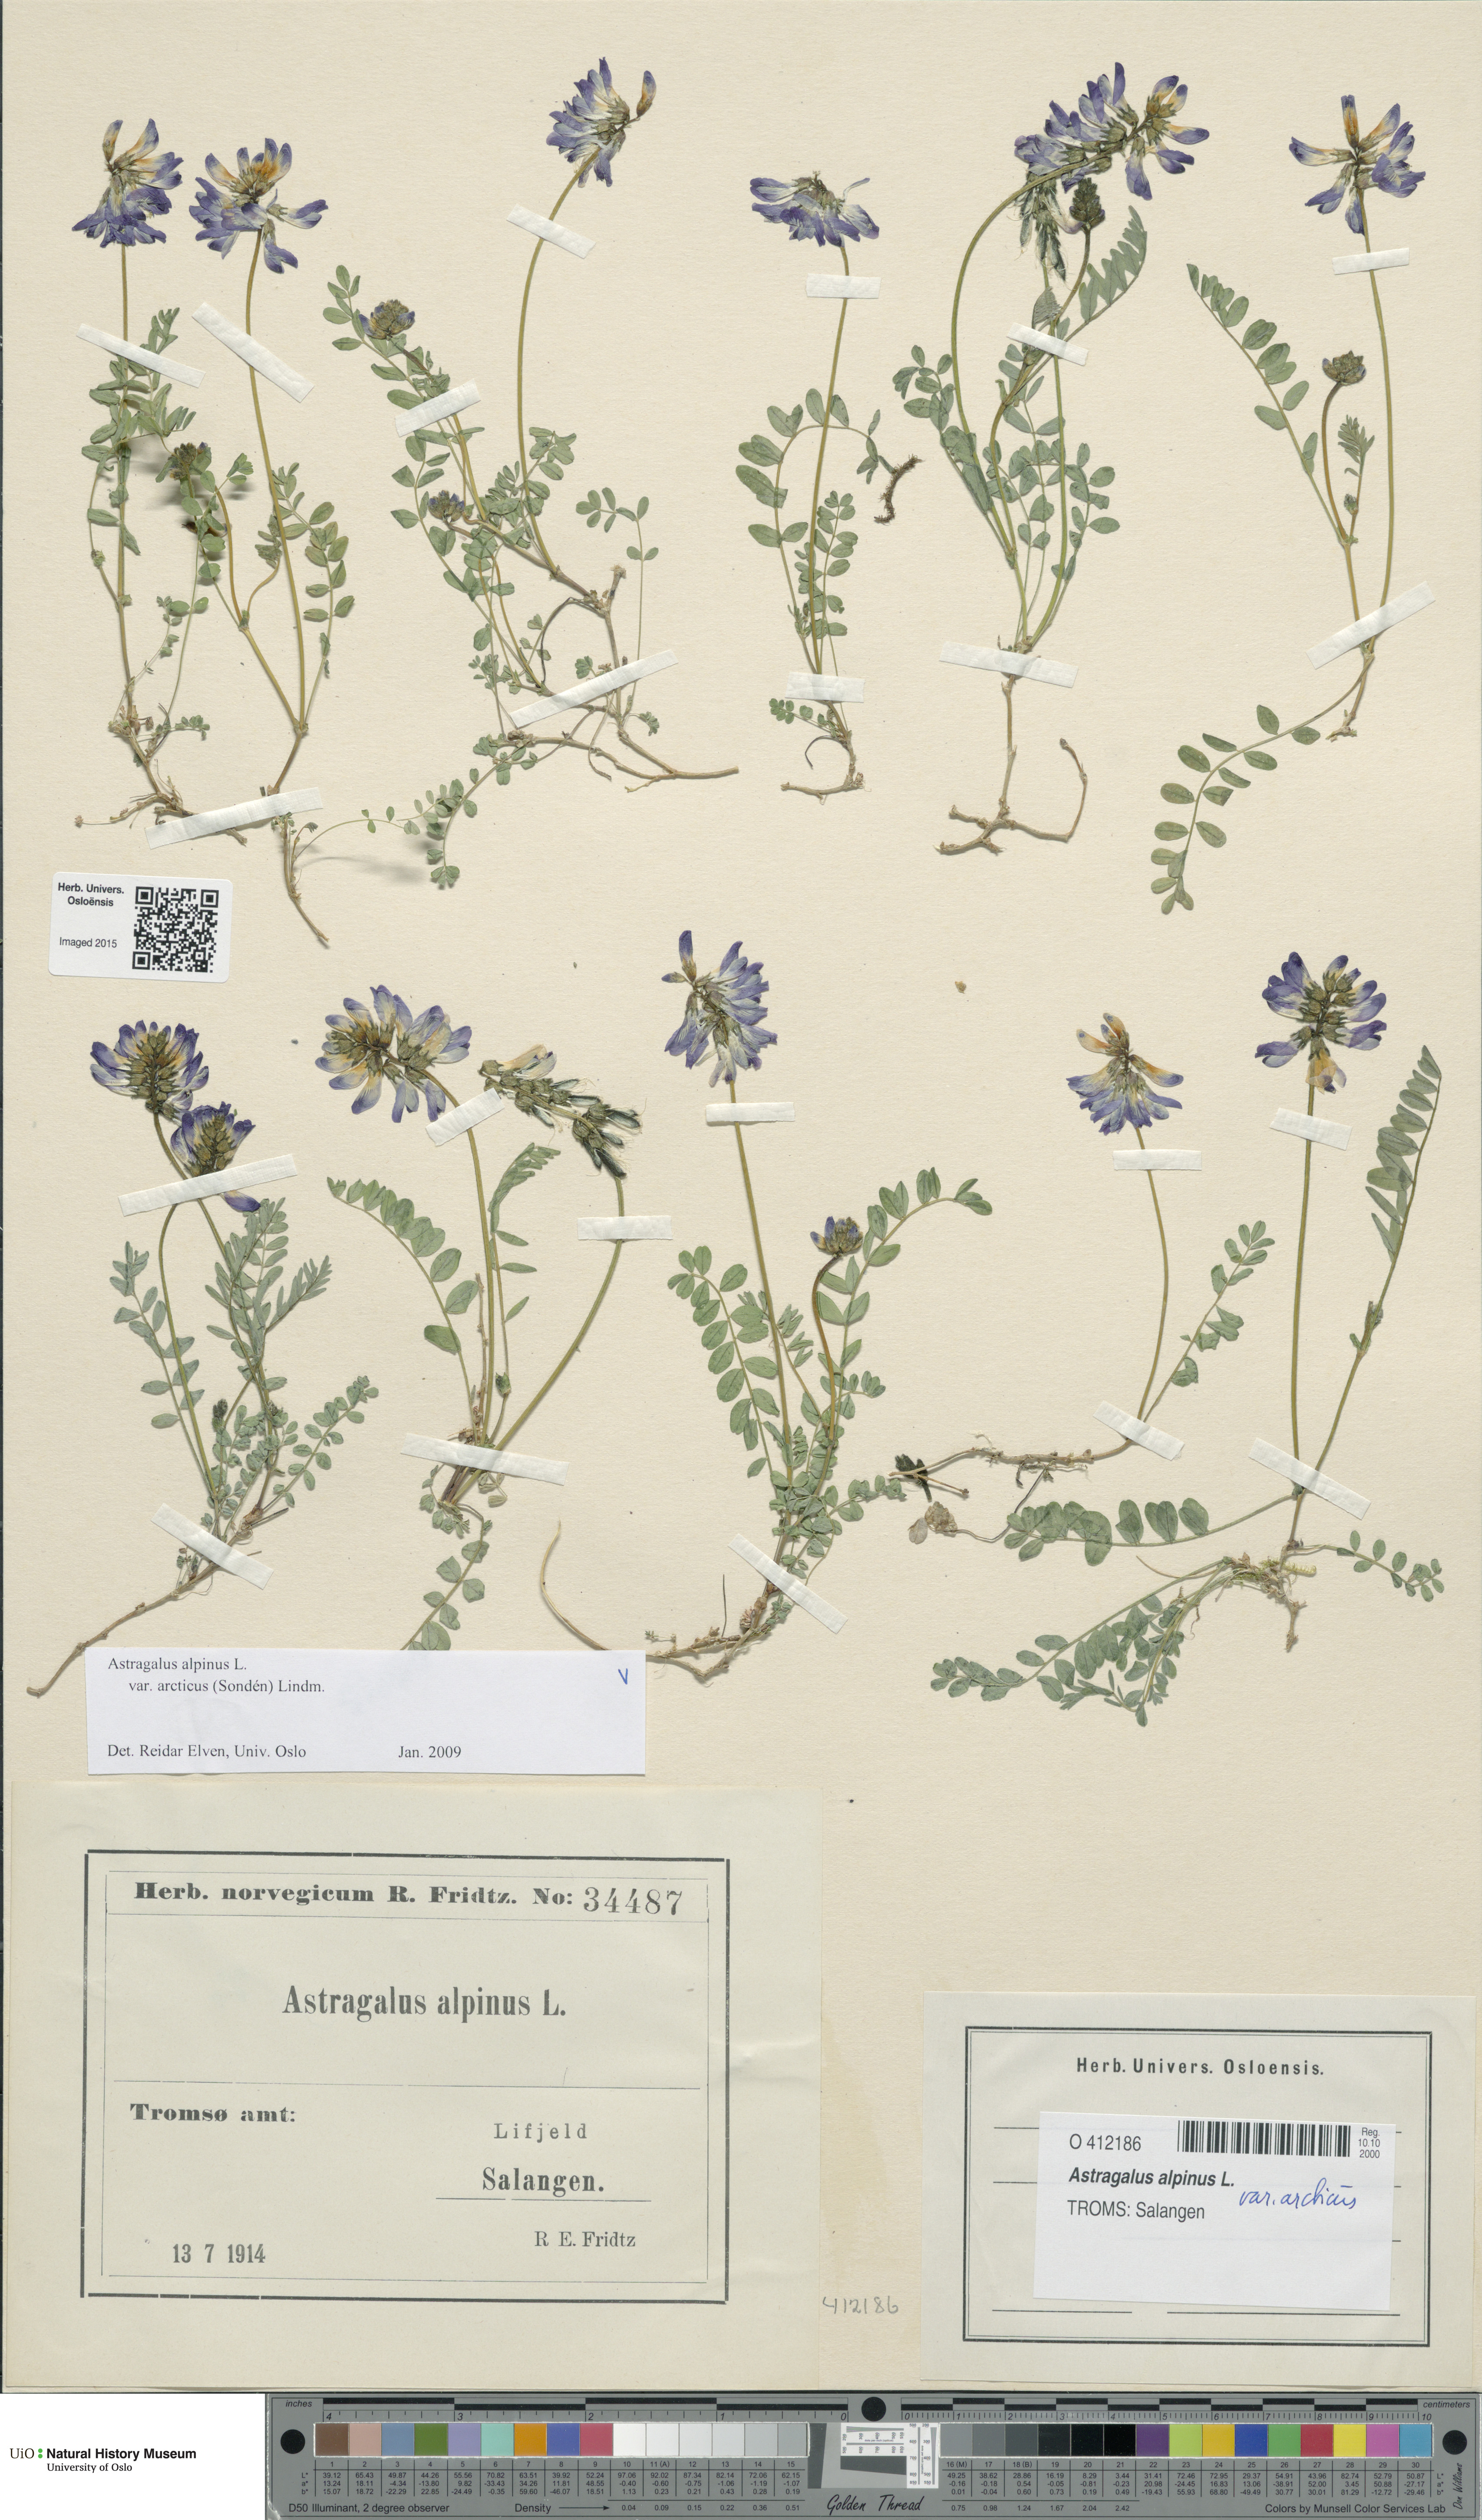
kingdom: Plantae
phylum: Tracheophyta
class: Magnoliopsida
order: Fabales
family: Fabaceae
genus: Astragalus
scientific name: Astragalus norvegicus
